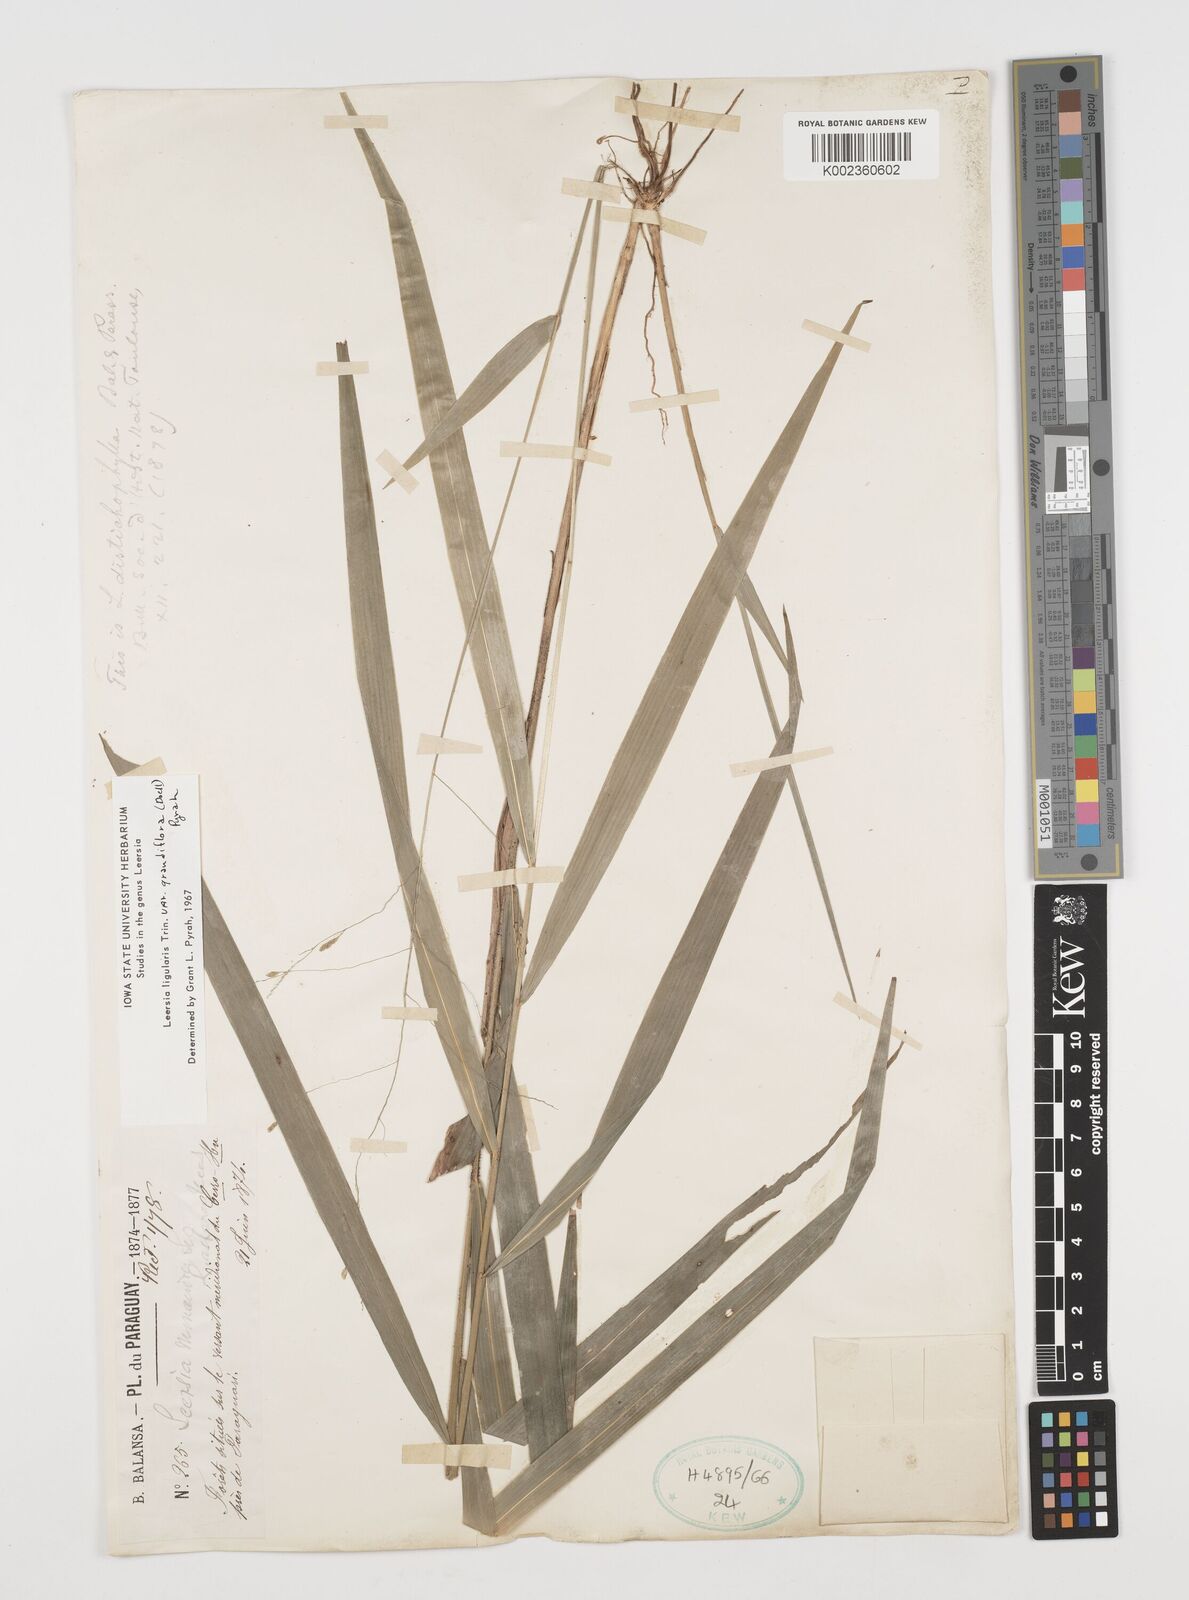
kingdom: Plantae
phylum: Tracheophyta
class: Liliopsida
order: Poales
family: Poaceae
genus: Leersia
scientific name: Leersia ligularis
